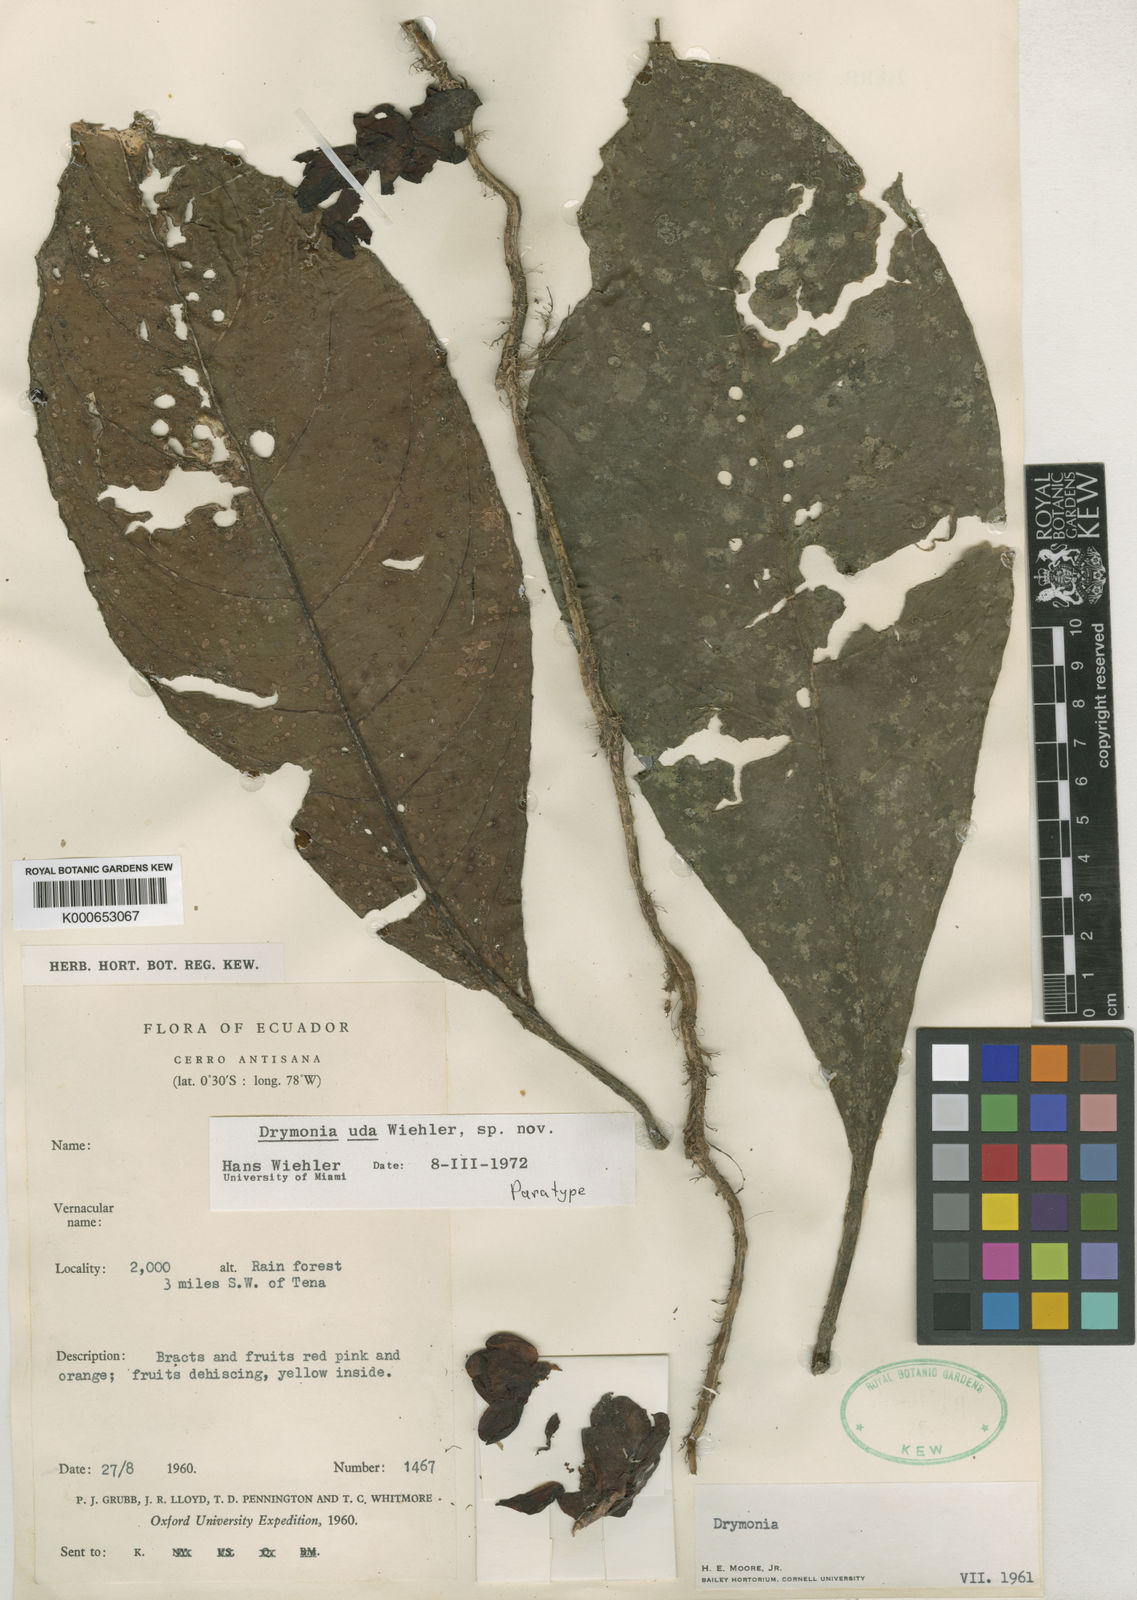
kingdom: Plantae
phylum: Tracheophyta
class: Magnoliopsida
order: Lamiales
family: Gesneriaceae
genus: Drymonia
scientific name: Drymonia
